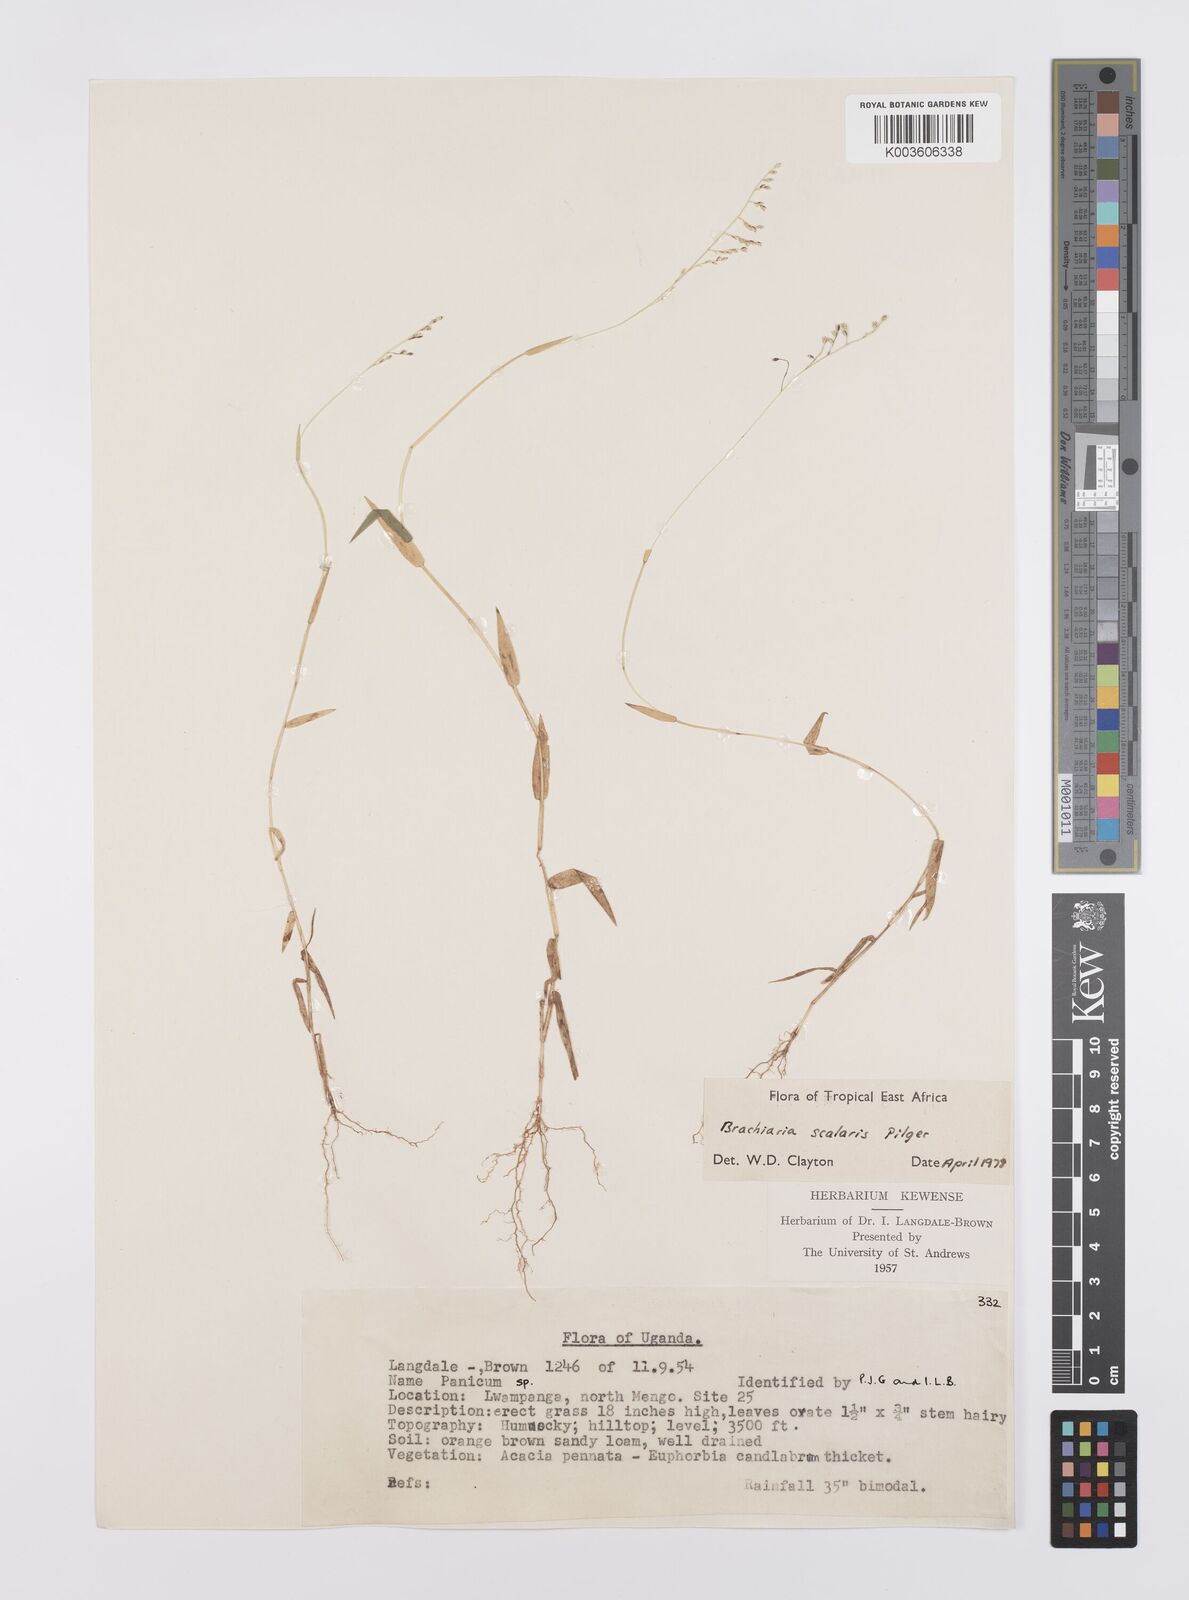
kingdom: Plantae
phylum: Tracheophyta
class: Liliopsida
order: Poales
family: Poaceae
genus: Urochloa
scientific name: Urochloa comata
